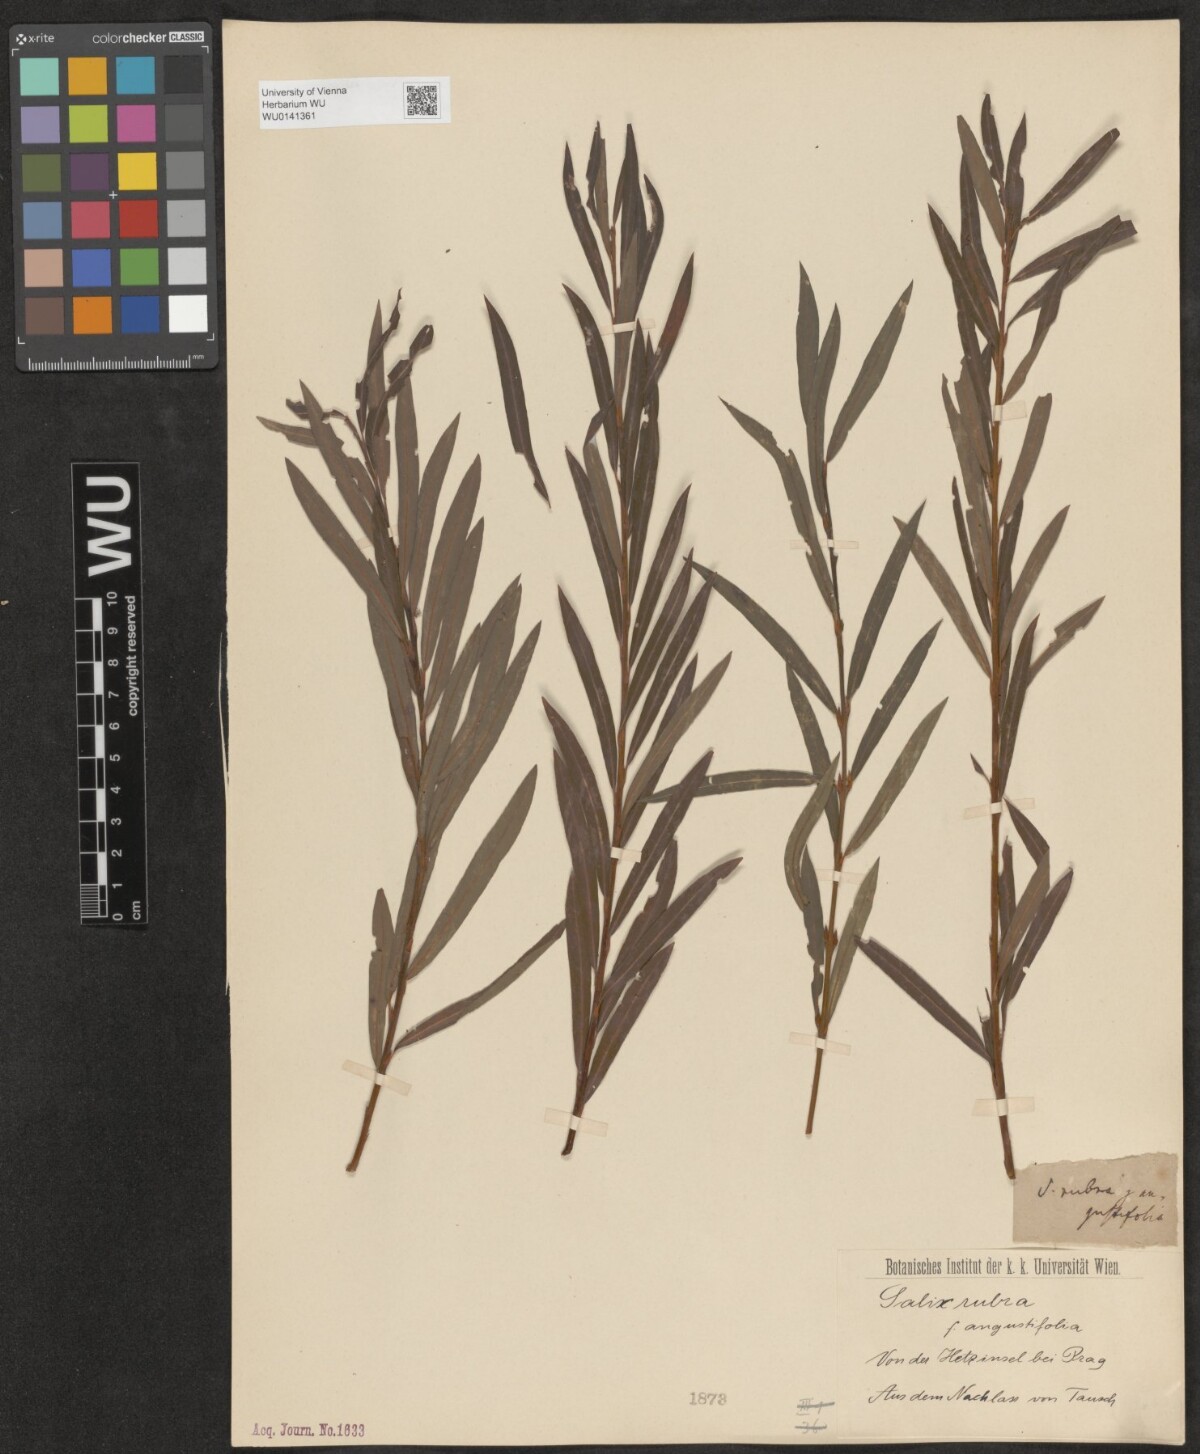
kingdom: Plantae
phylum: Tracheophyta
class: Magnoliopsida
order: Malpighiales
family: Salicaceae
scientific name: Salicaceae
